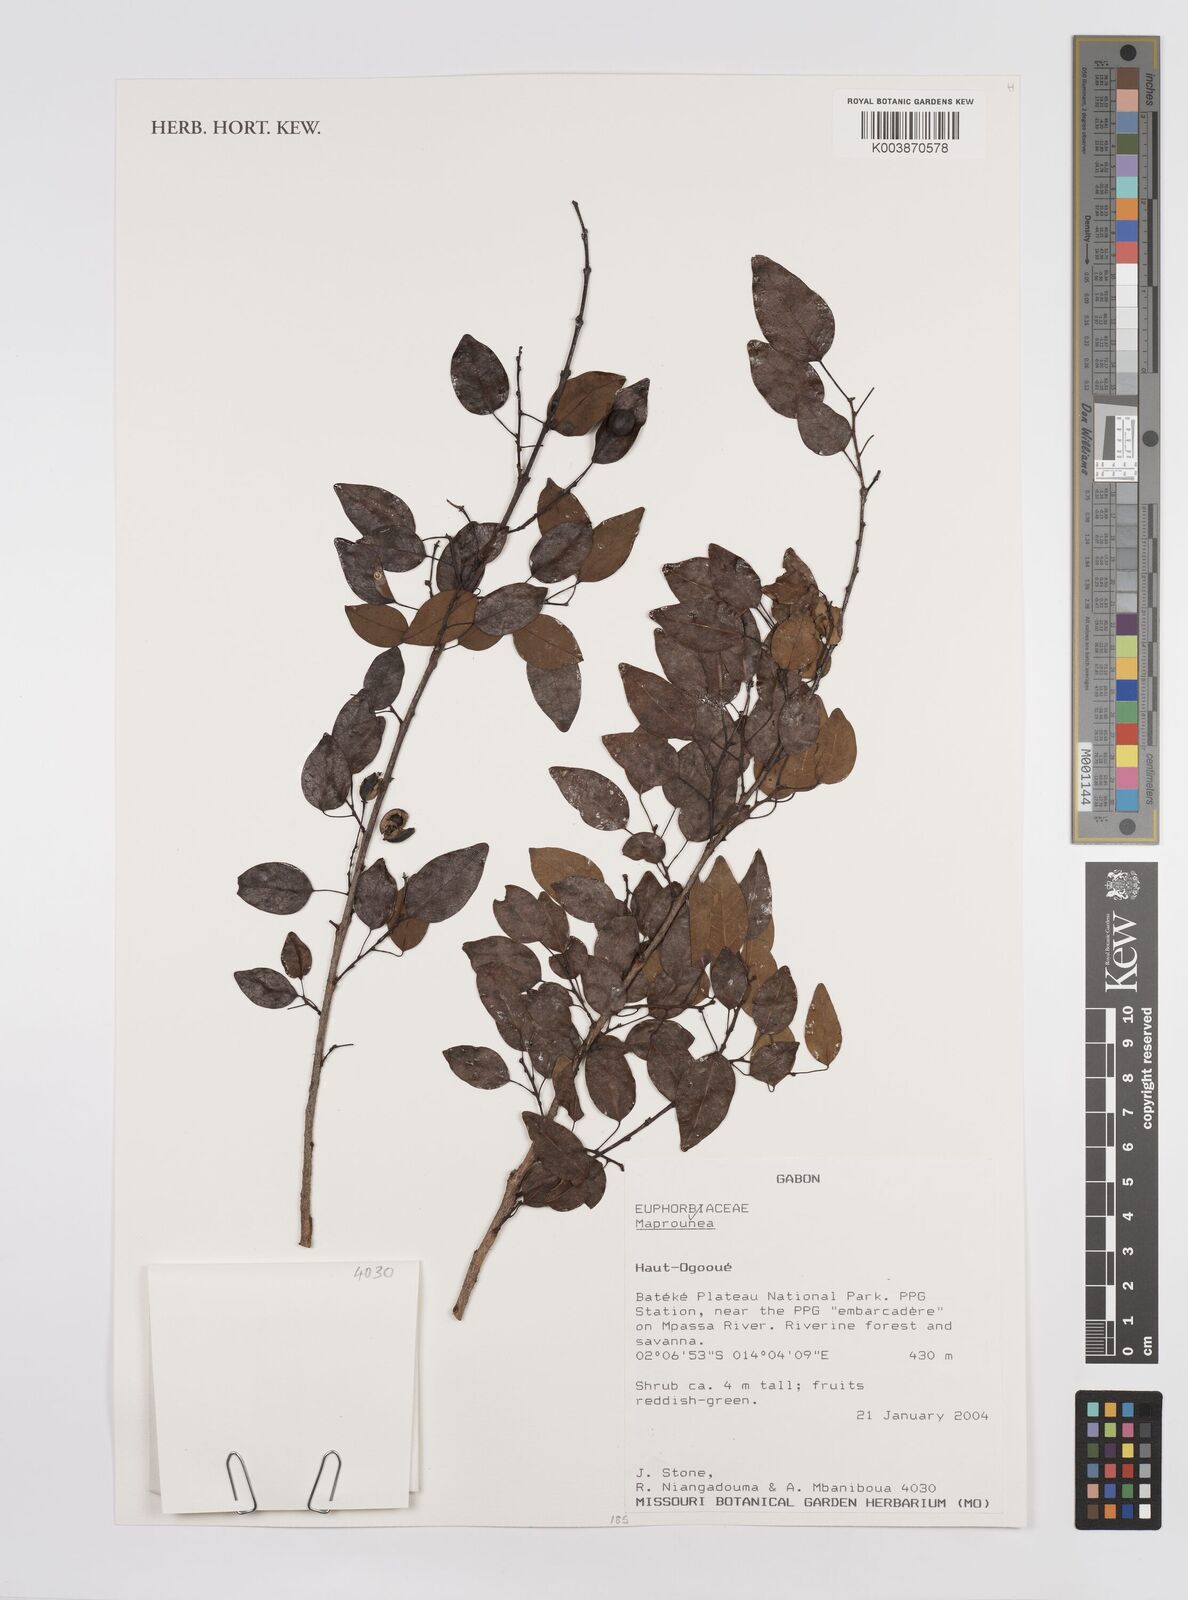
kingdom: Plantae
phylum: Tracheophyta
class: Magnoliopsida
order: Malpighiales
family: Euphorbiaceae
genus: Maprounea
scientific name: Maprounea
